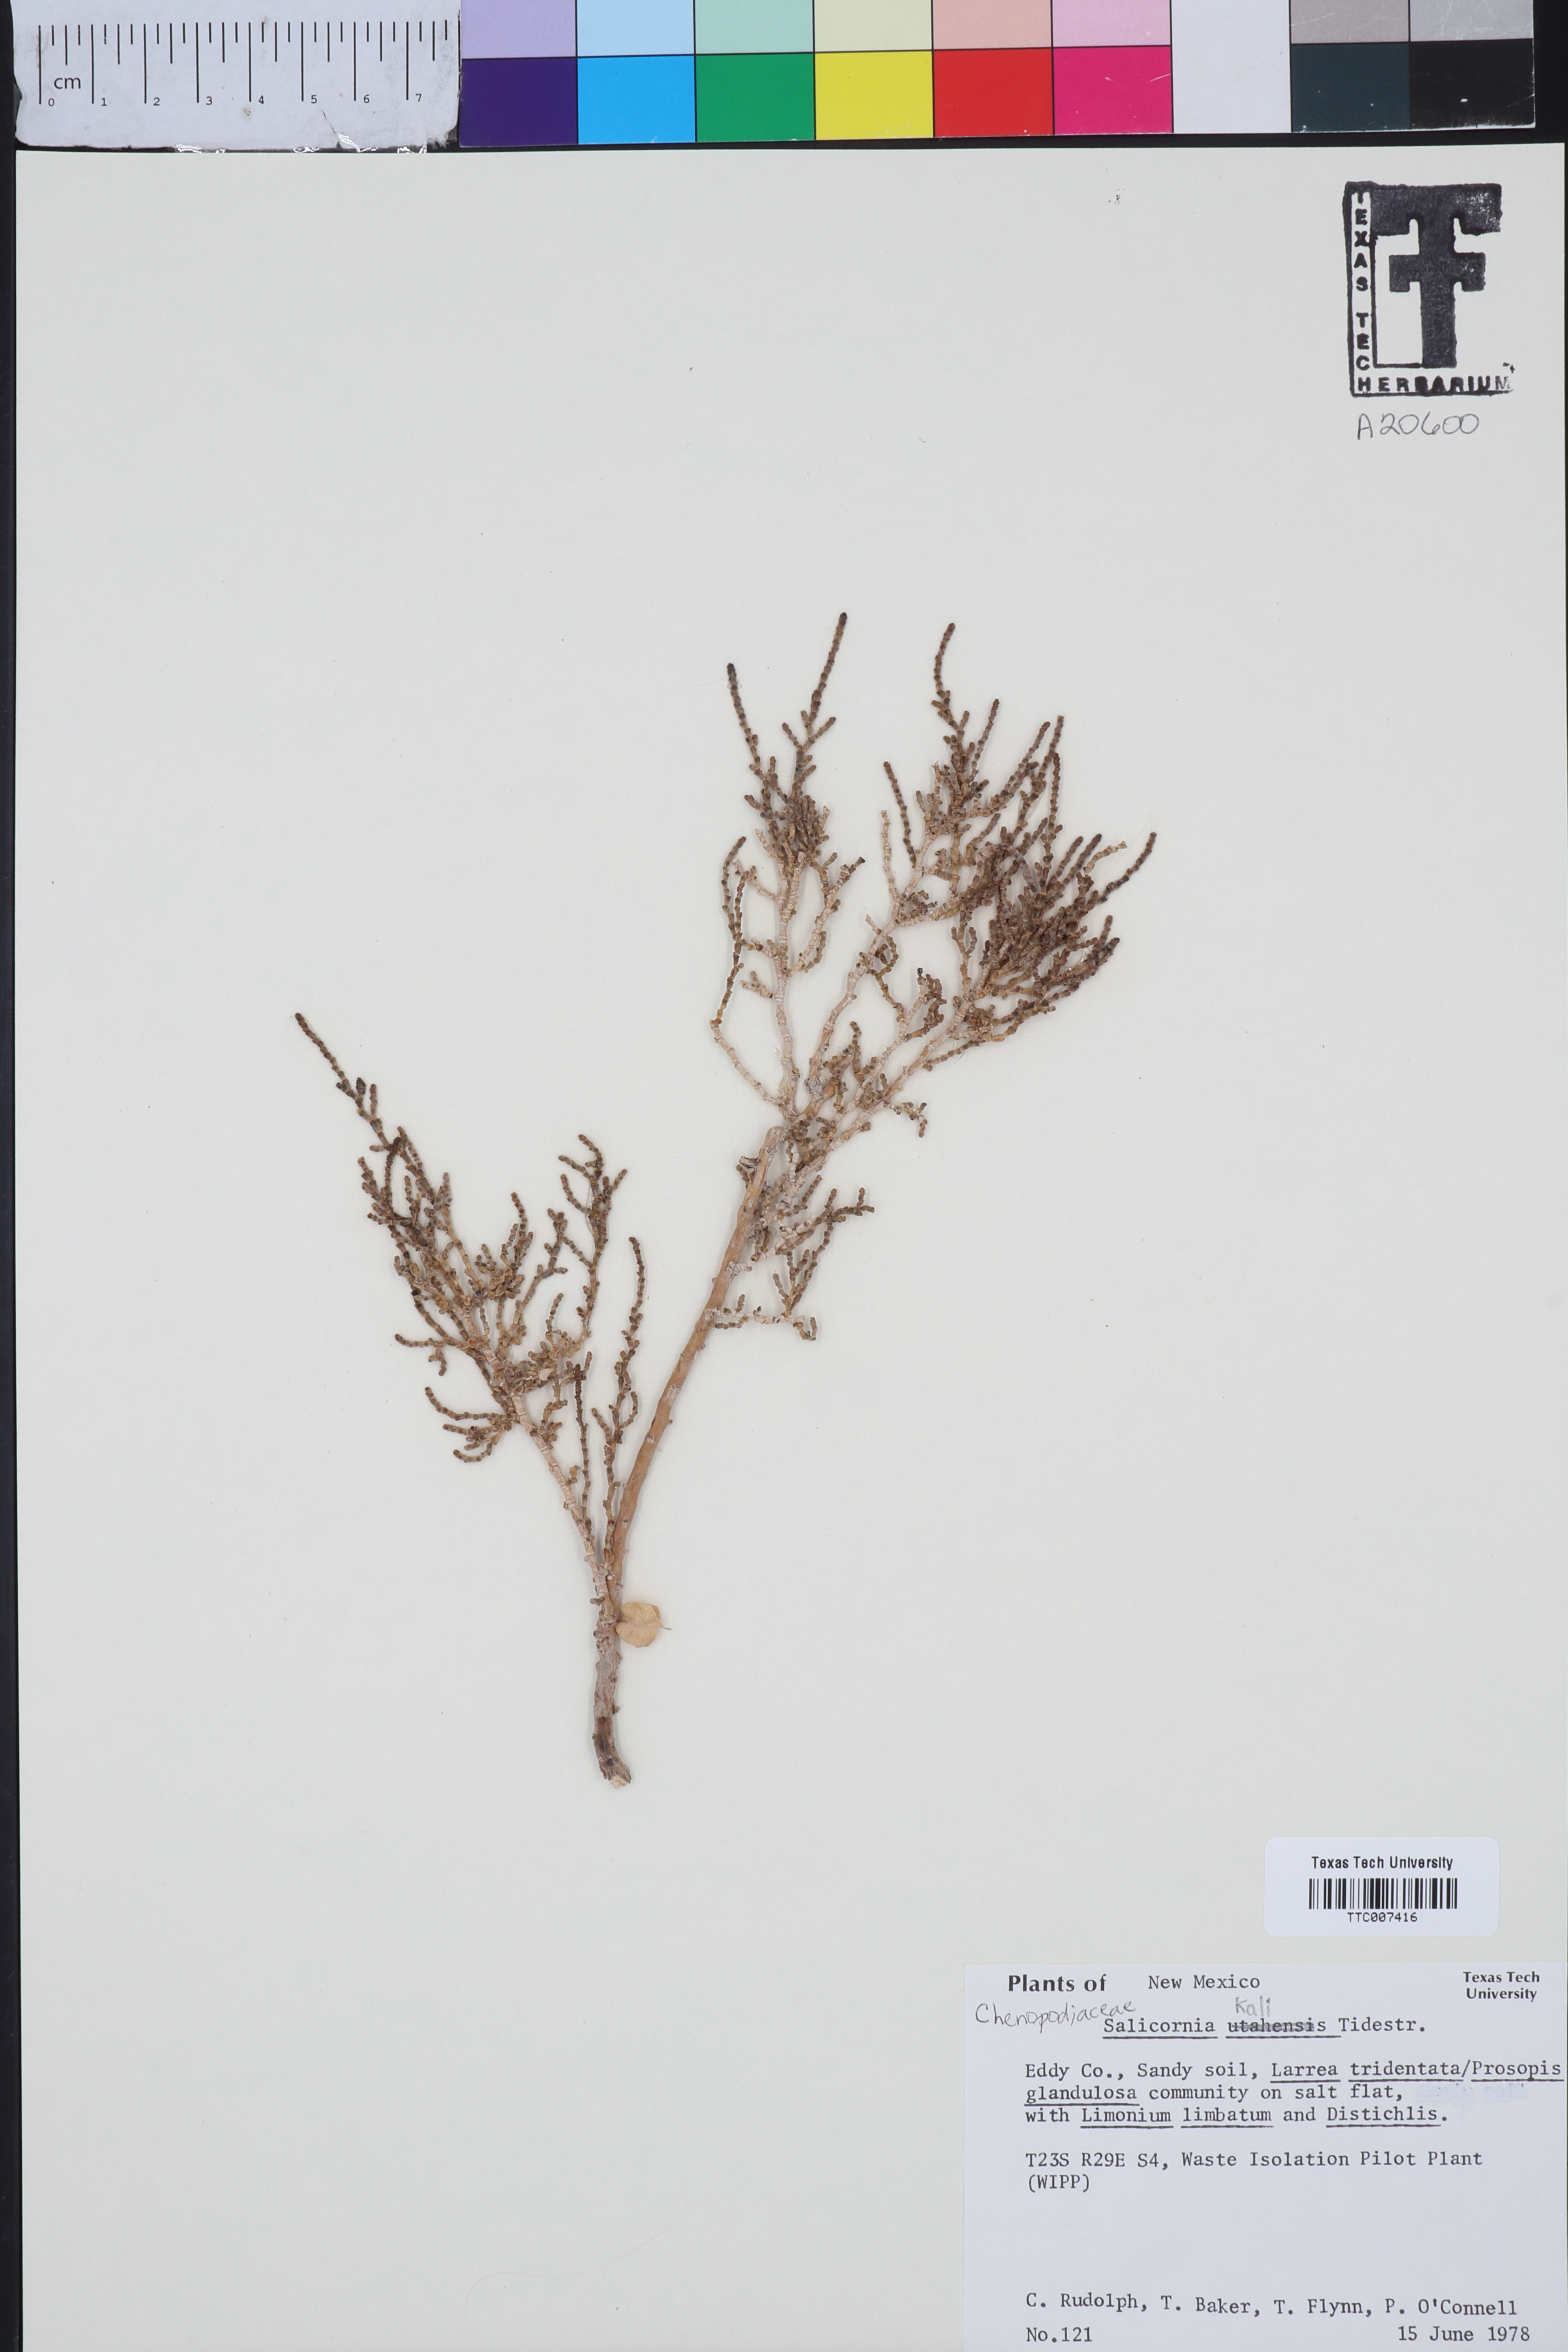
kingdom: Plantae
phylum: Tracheophyta
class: Magnoliopsida
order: Caryophyllales
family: Amaranthaceae
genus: Salicornia
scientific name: Salicornia utahensis
